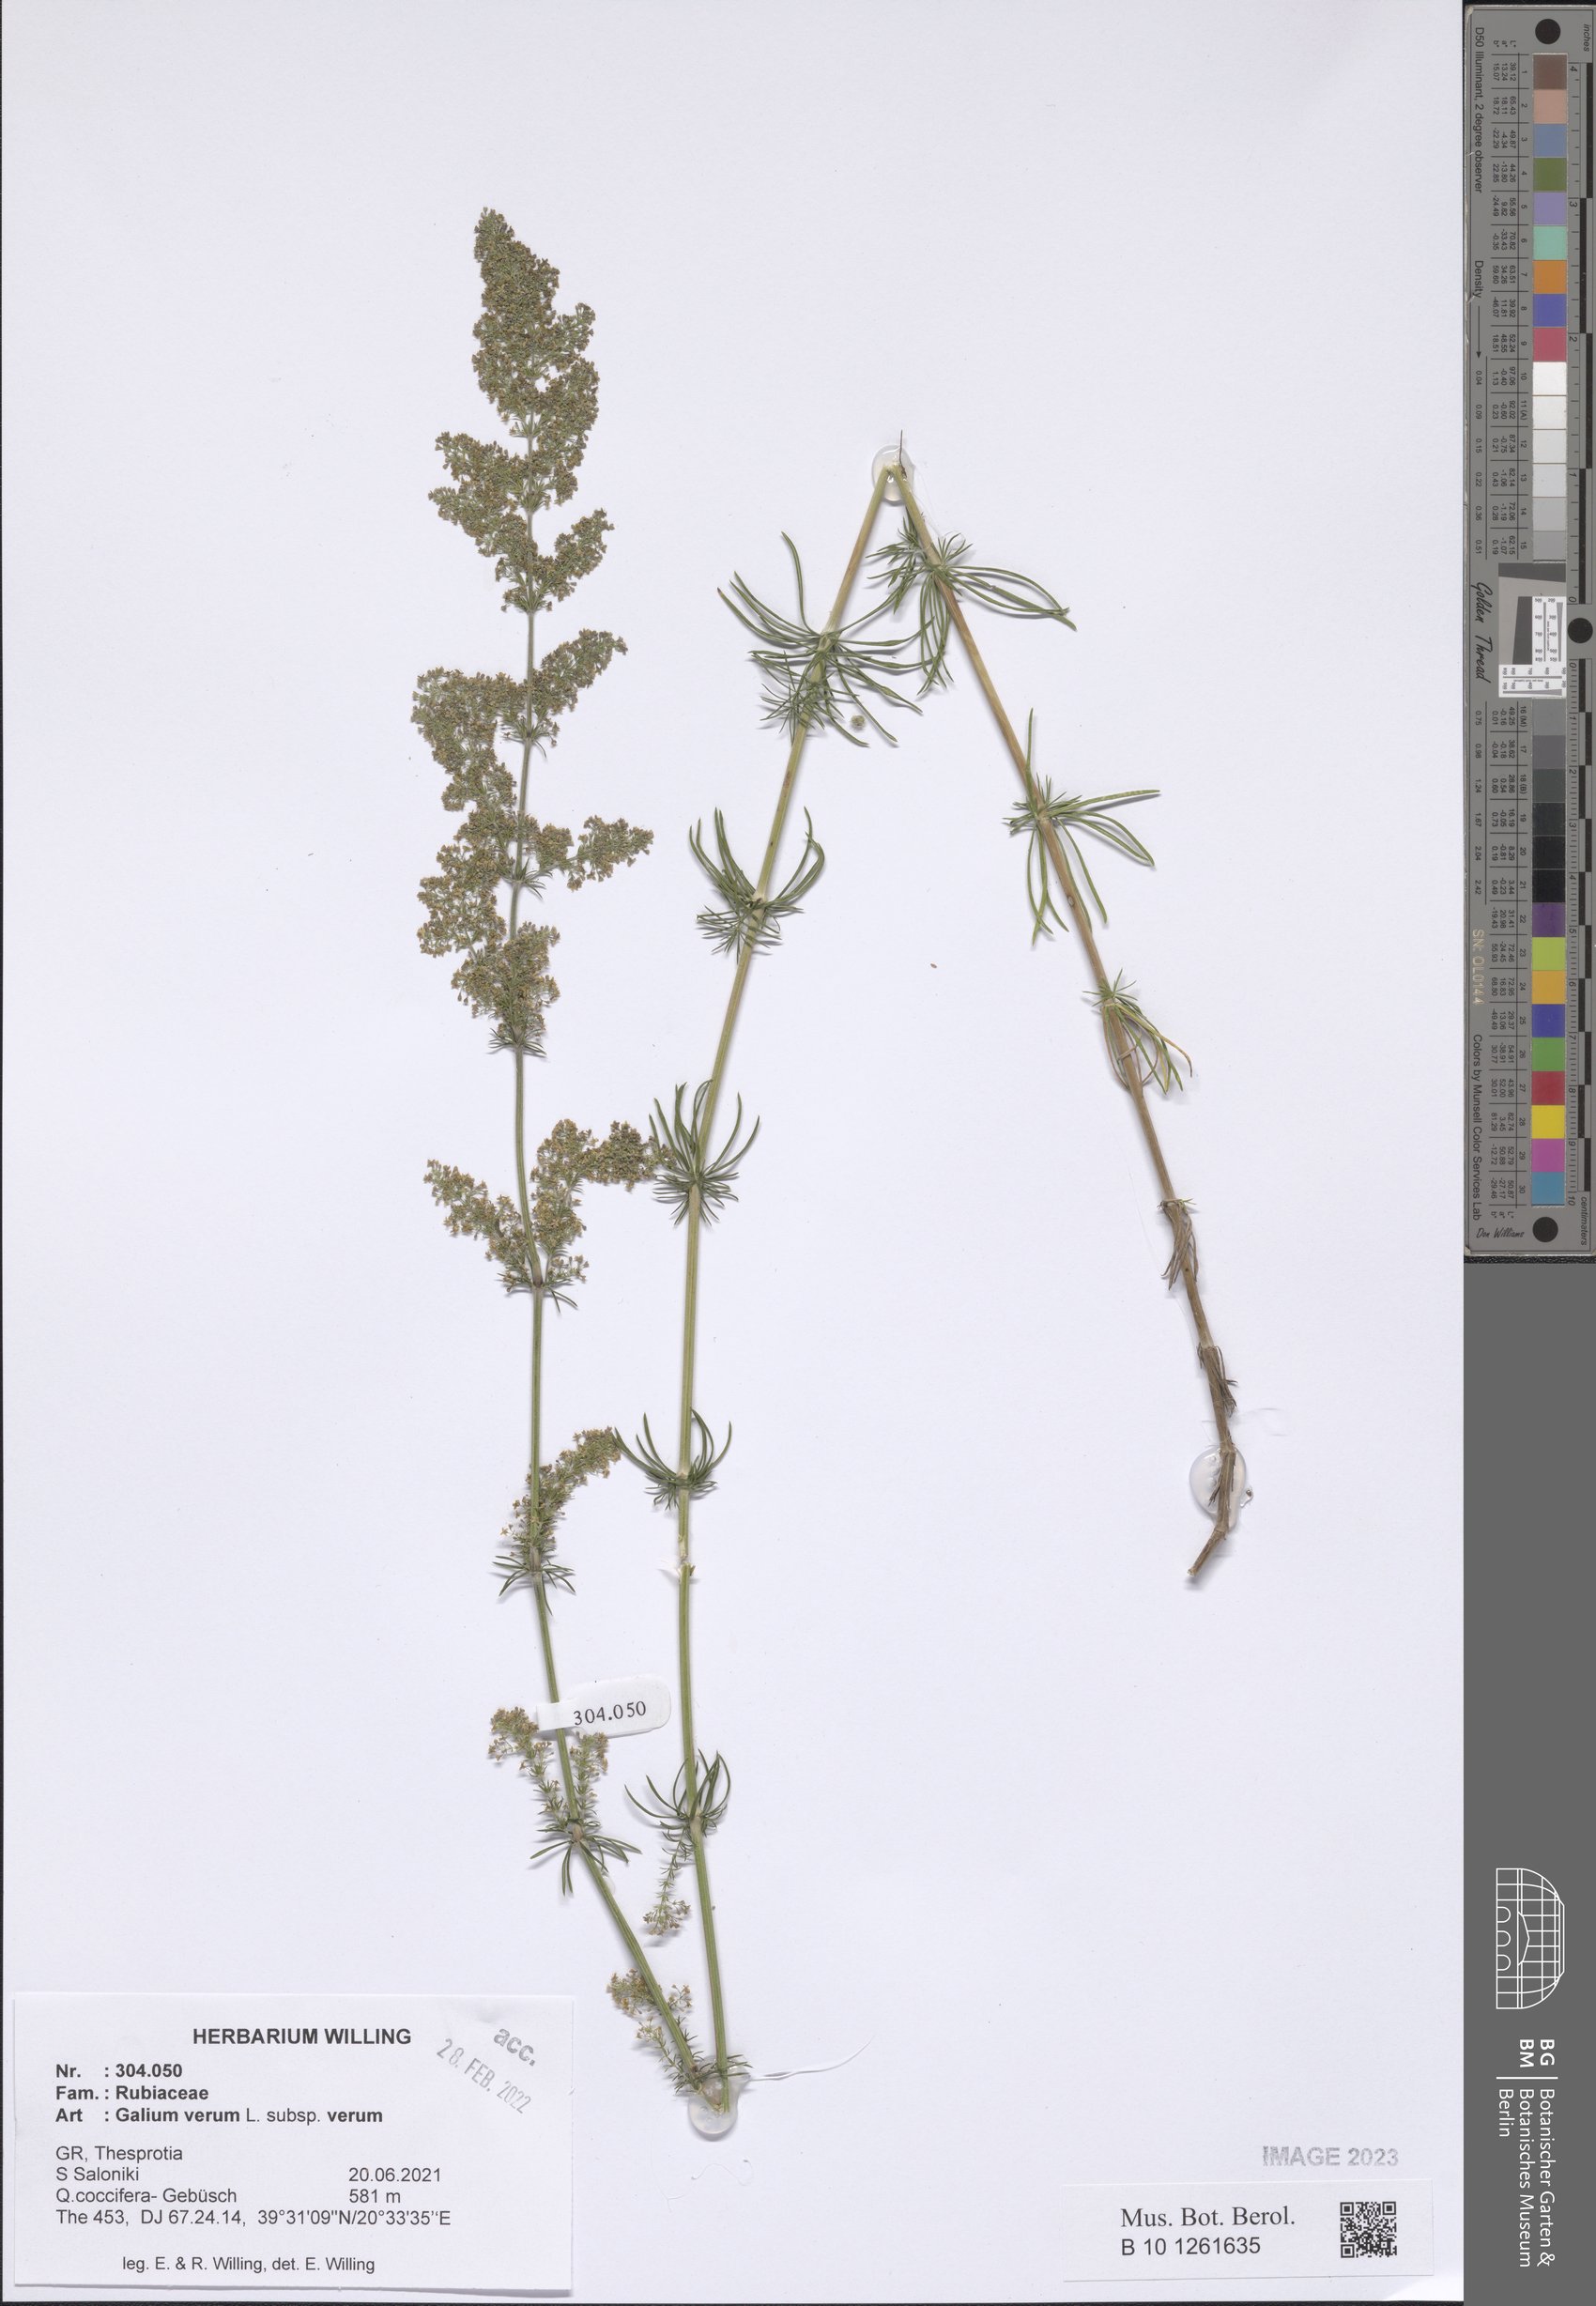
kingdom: Plantae
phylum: Tracheophyta
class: Magnoliopsida
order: Gentianales
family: Rubiaceae
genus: Galium
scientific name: Galium verum
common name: Lady's bedstraw
